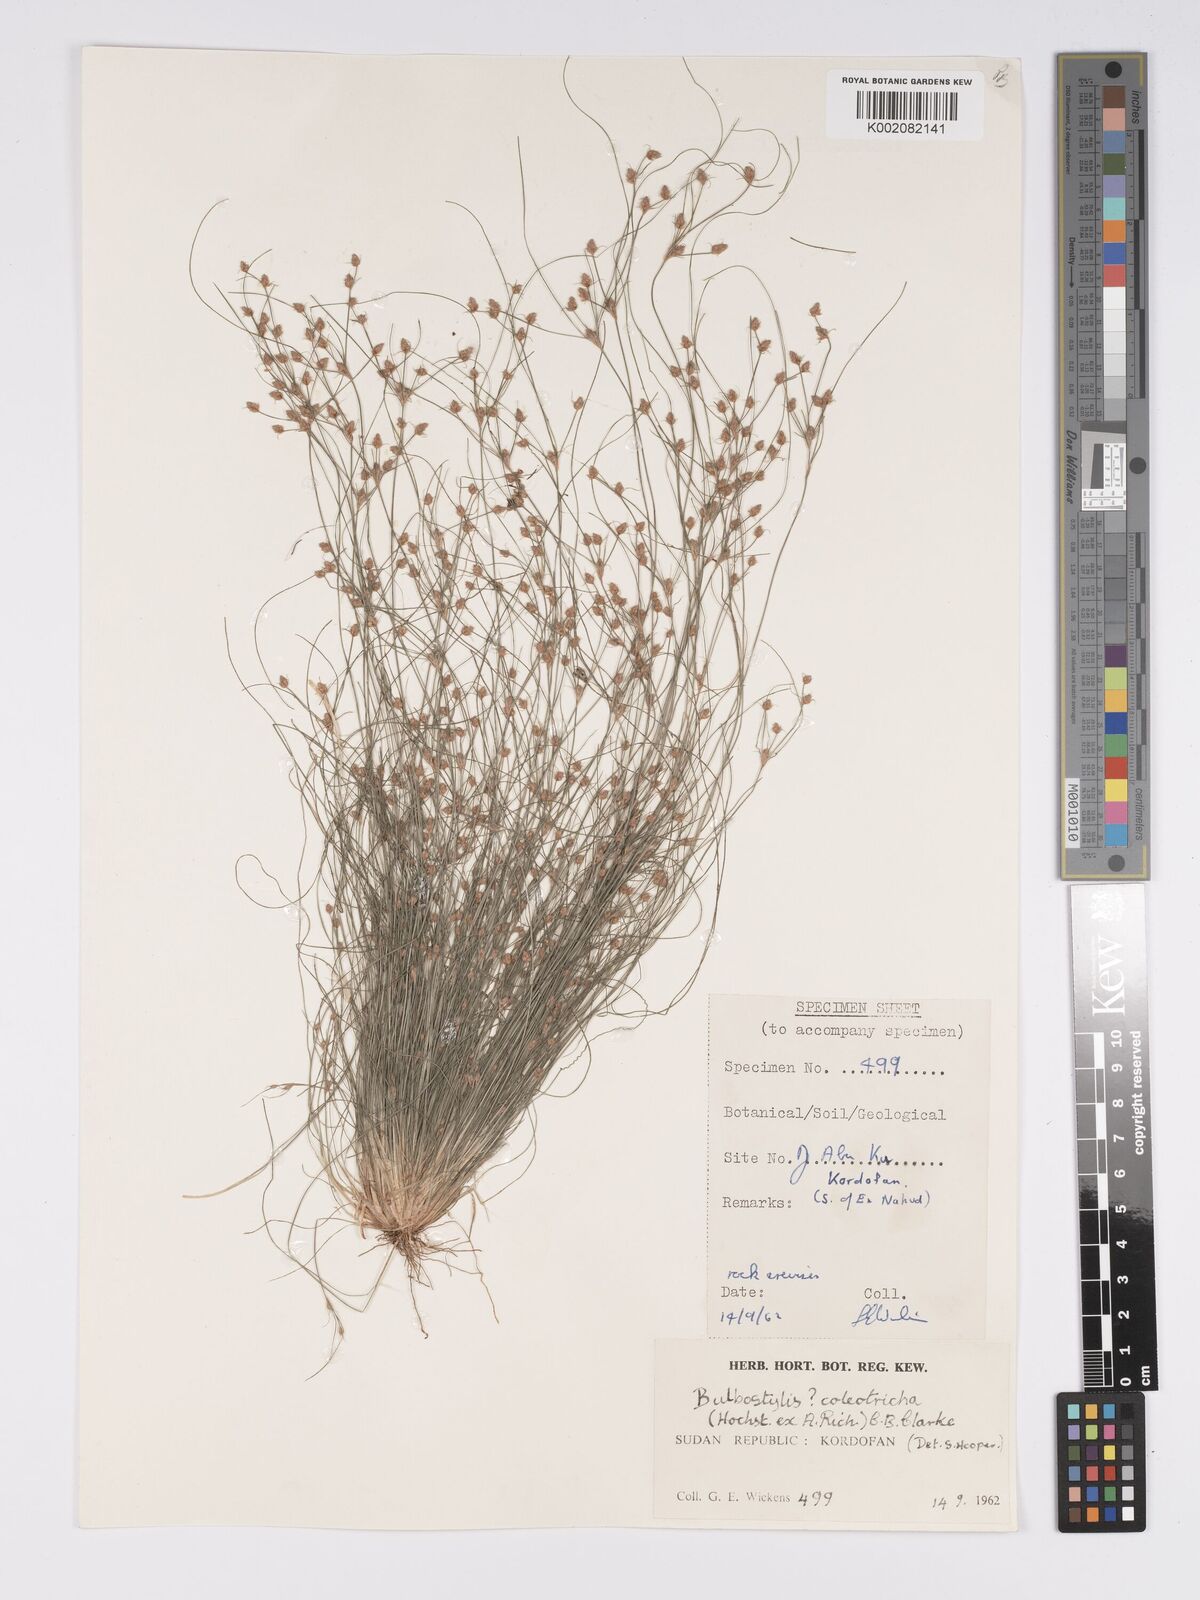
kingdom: Plantae
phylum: Tracheophyta
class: Liliopsida
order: Poales
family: Cyperaceae
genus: Bulbostylis
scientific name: Bulbostylis coleotricha
